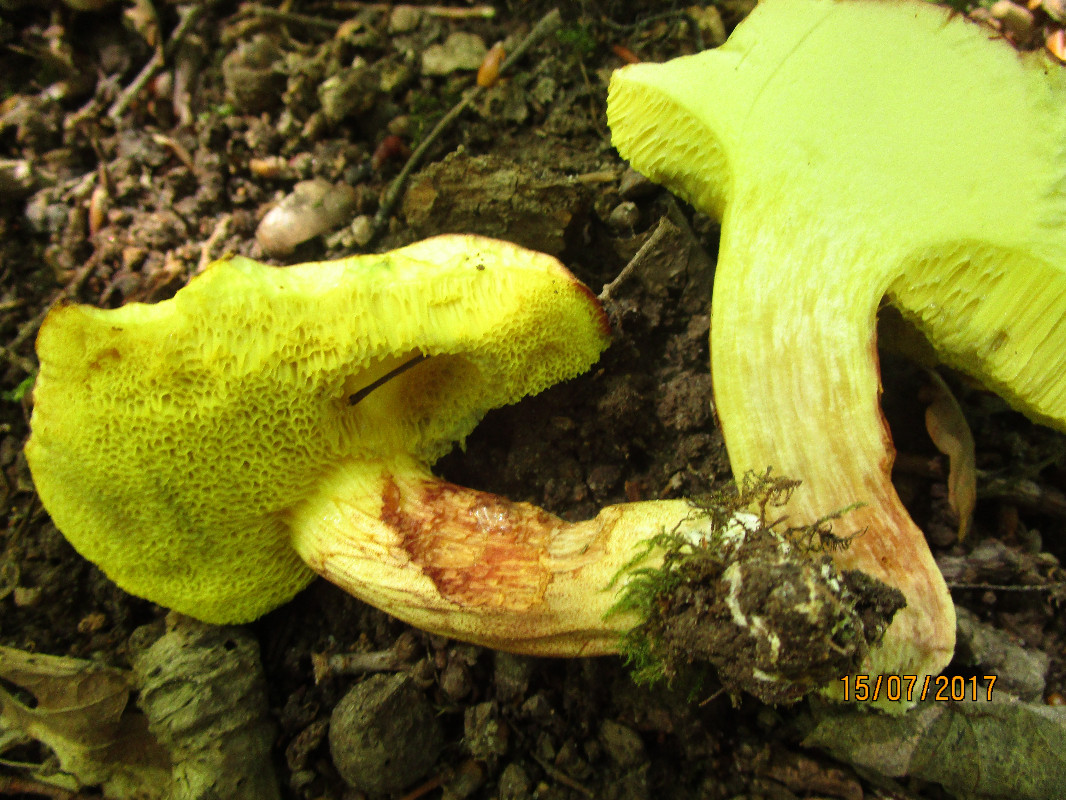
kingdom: Fungi
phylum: Basidiomycota
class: Agaricomycetes
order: Boletales
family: Boletaceae
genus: Xerocomus
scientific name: Xerocomus subtomentosus
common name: filtet rørhat
